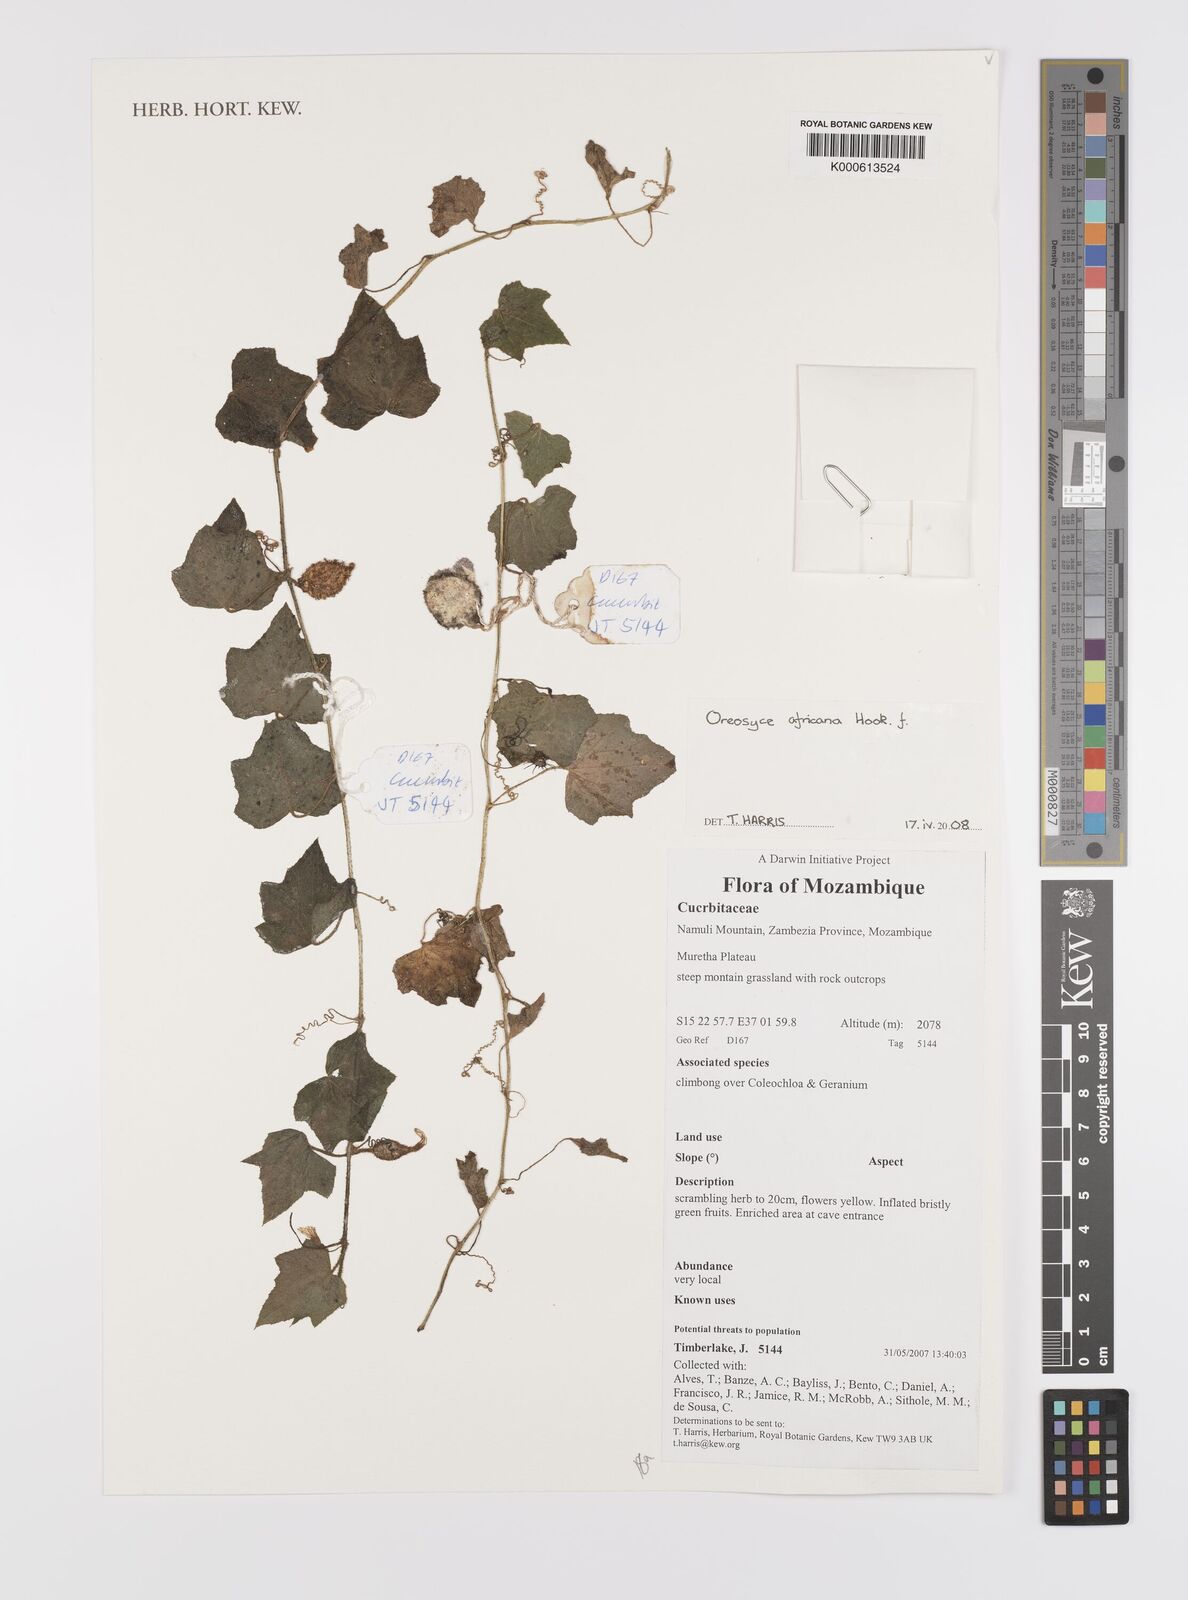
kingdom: Plantae
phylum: Tracheophyta
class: Magnoliopsida
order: Cucurbitales
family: Cucurbitaceae
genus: Cucumis
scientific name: Cucumis oreosyce
